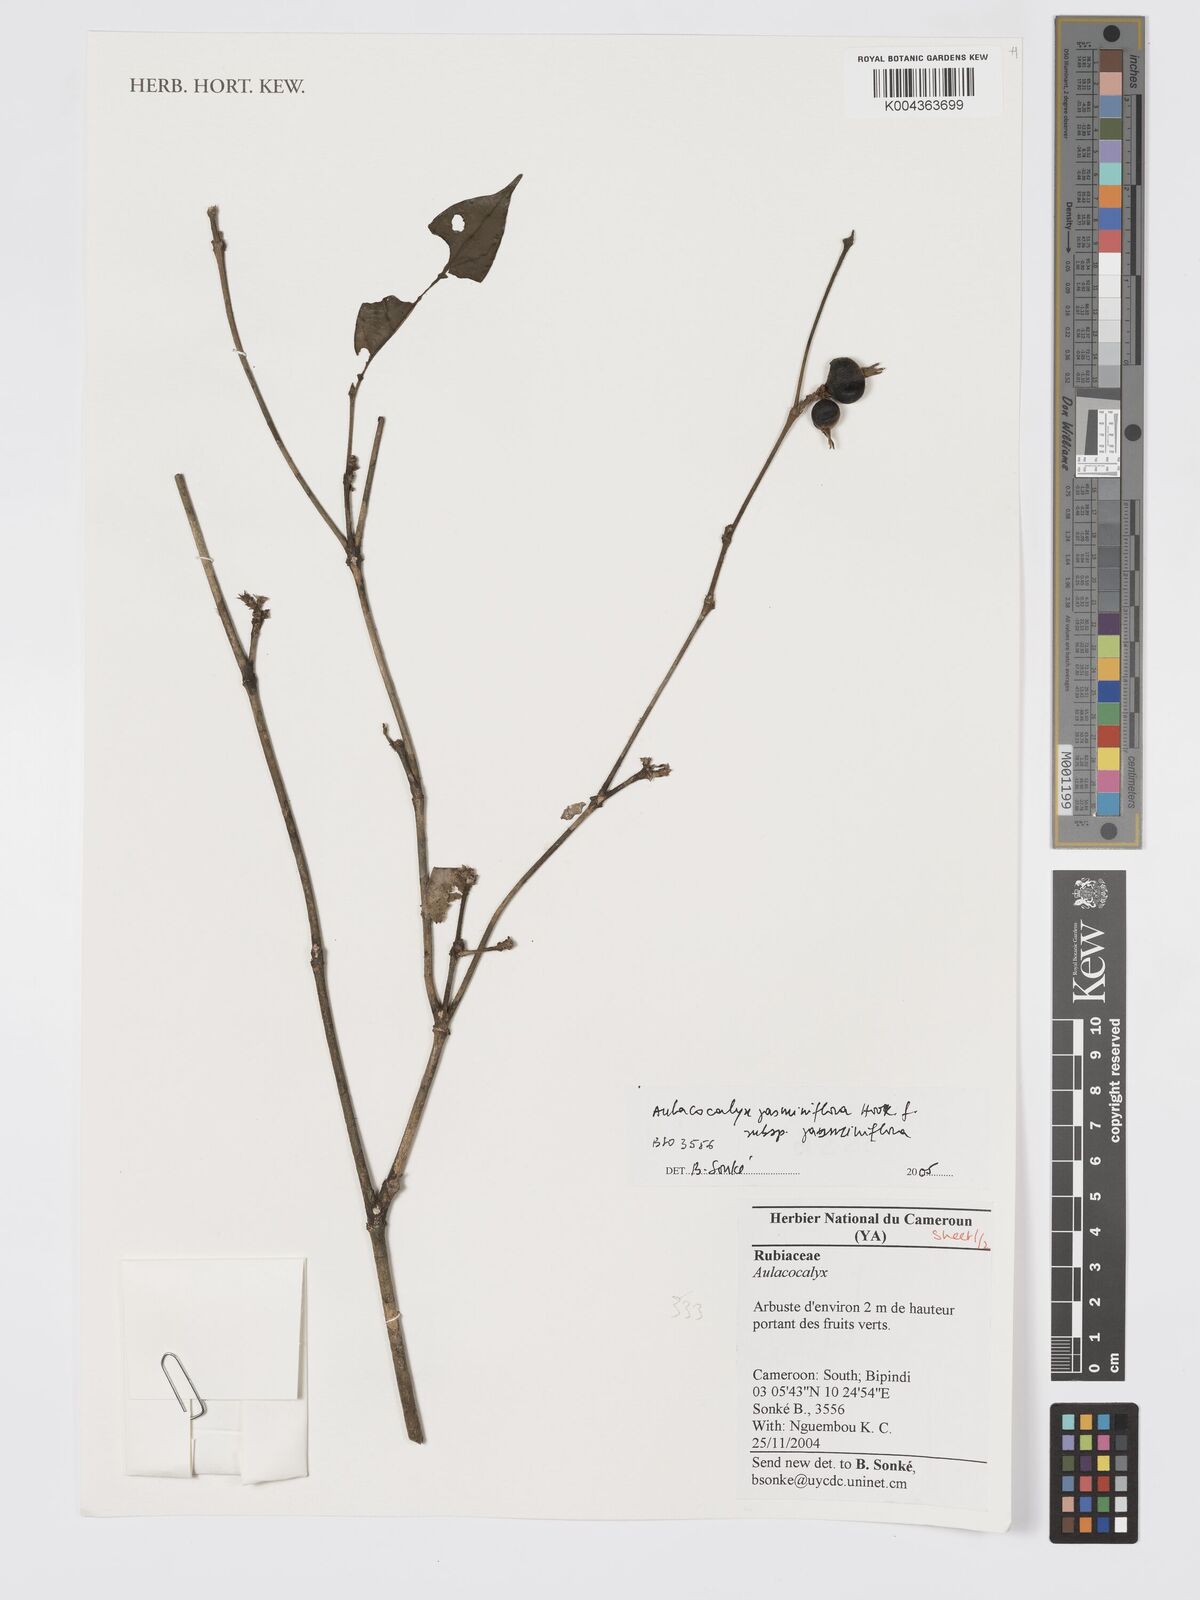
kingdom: Plantae
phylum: Tracheophyta
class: Magnoliopsida
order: Gentianales
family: Rubiaceae
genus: Aulacocalyx
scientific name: Aulacocalyx jasminiflora
